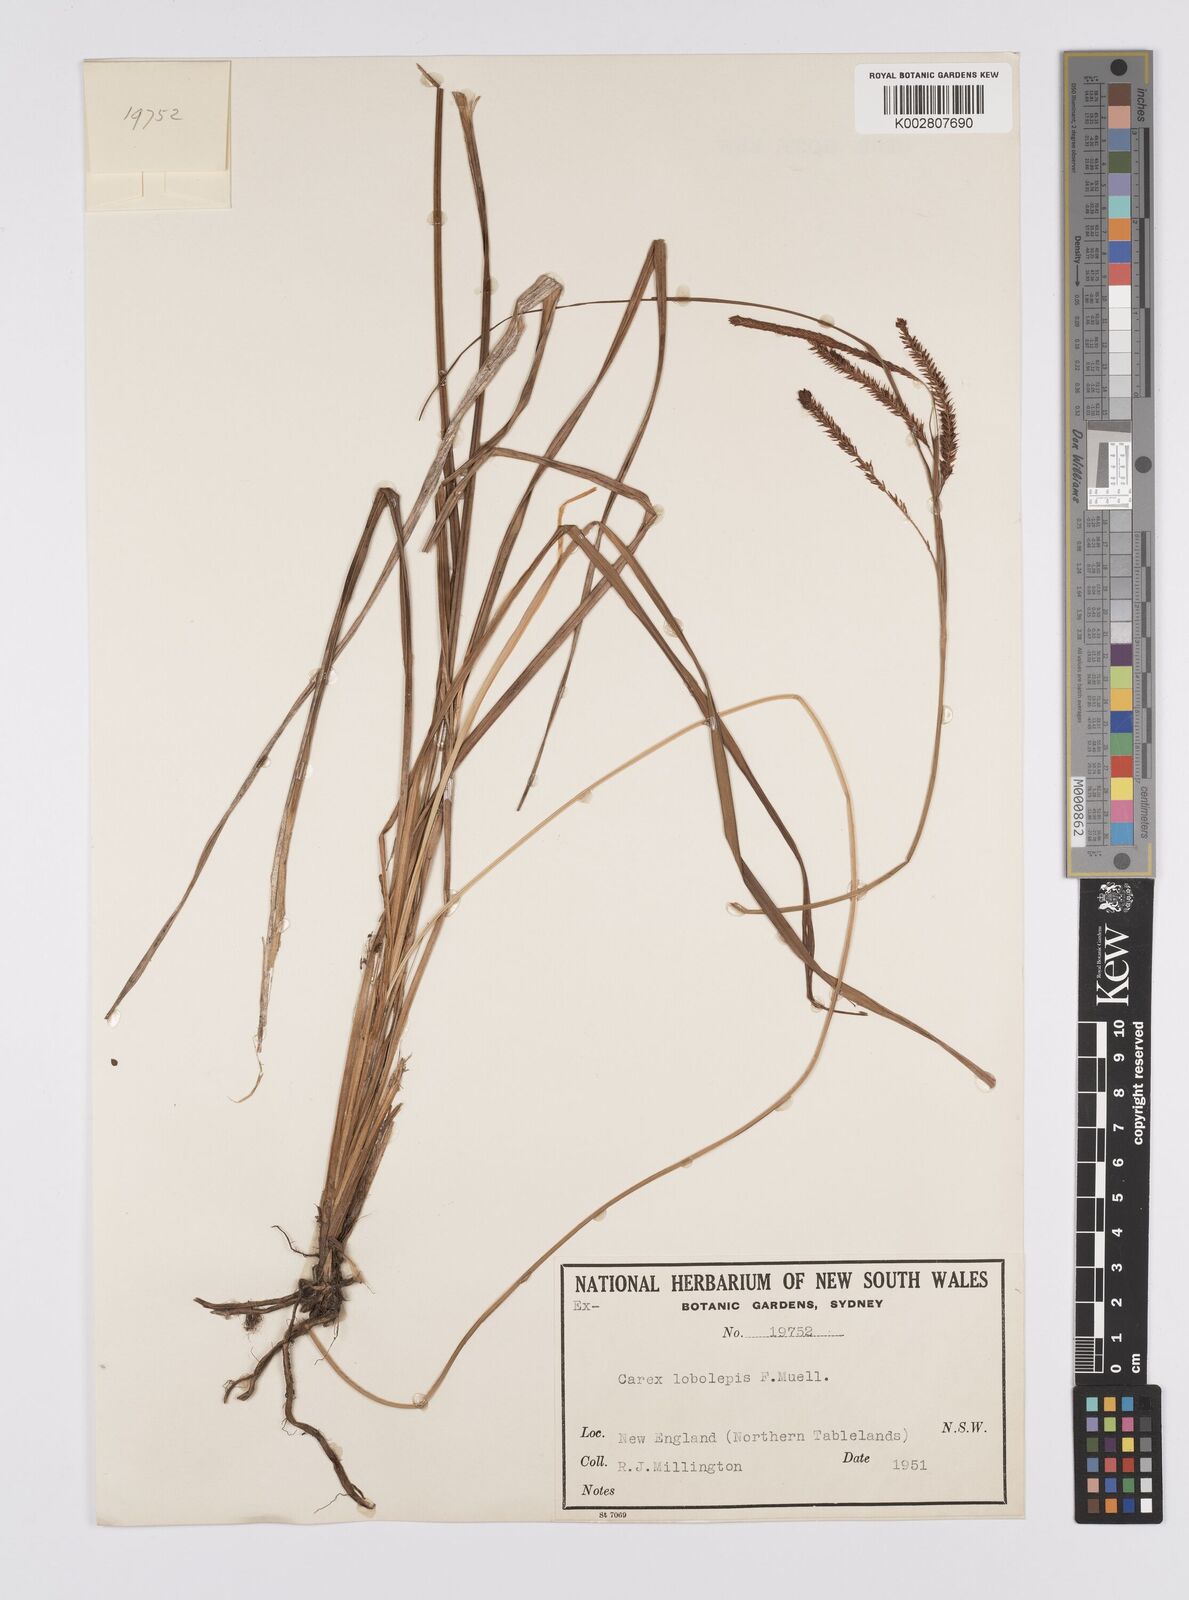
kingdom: Plantae
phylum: Tracheophyta
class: Liliopsida
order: Poales
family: Cyperaceae
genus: Carex
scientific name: Carex lobolepis
